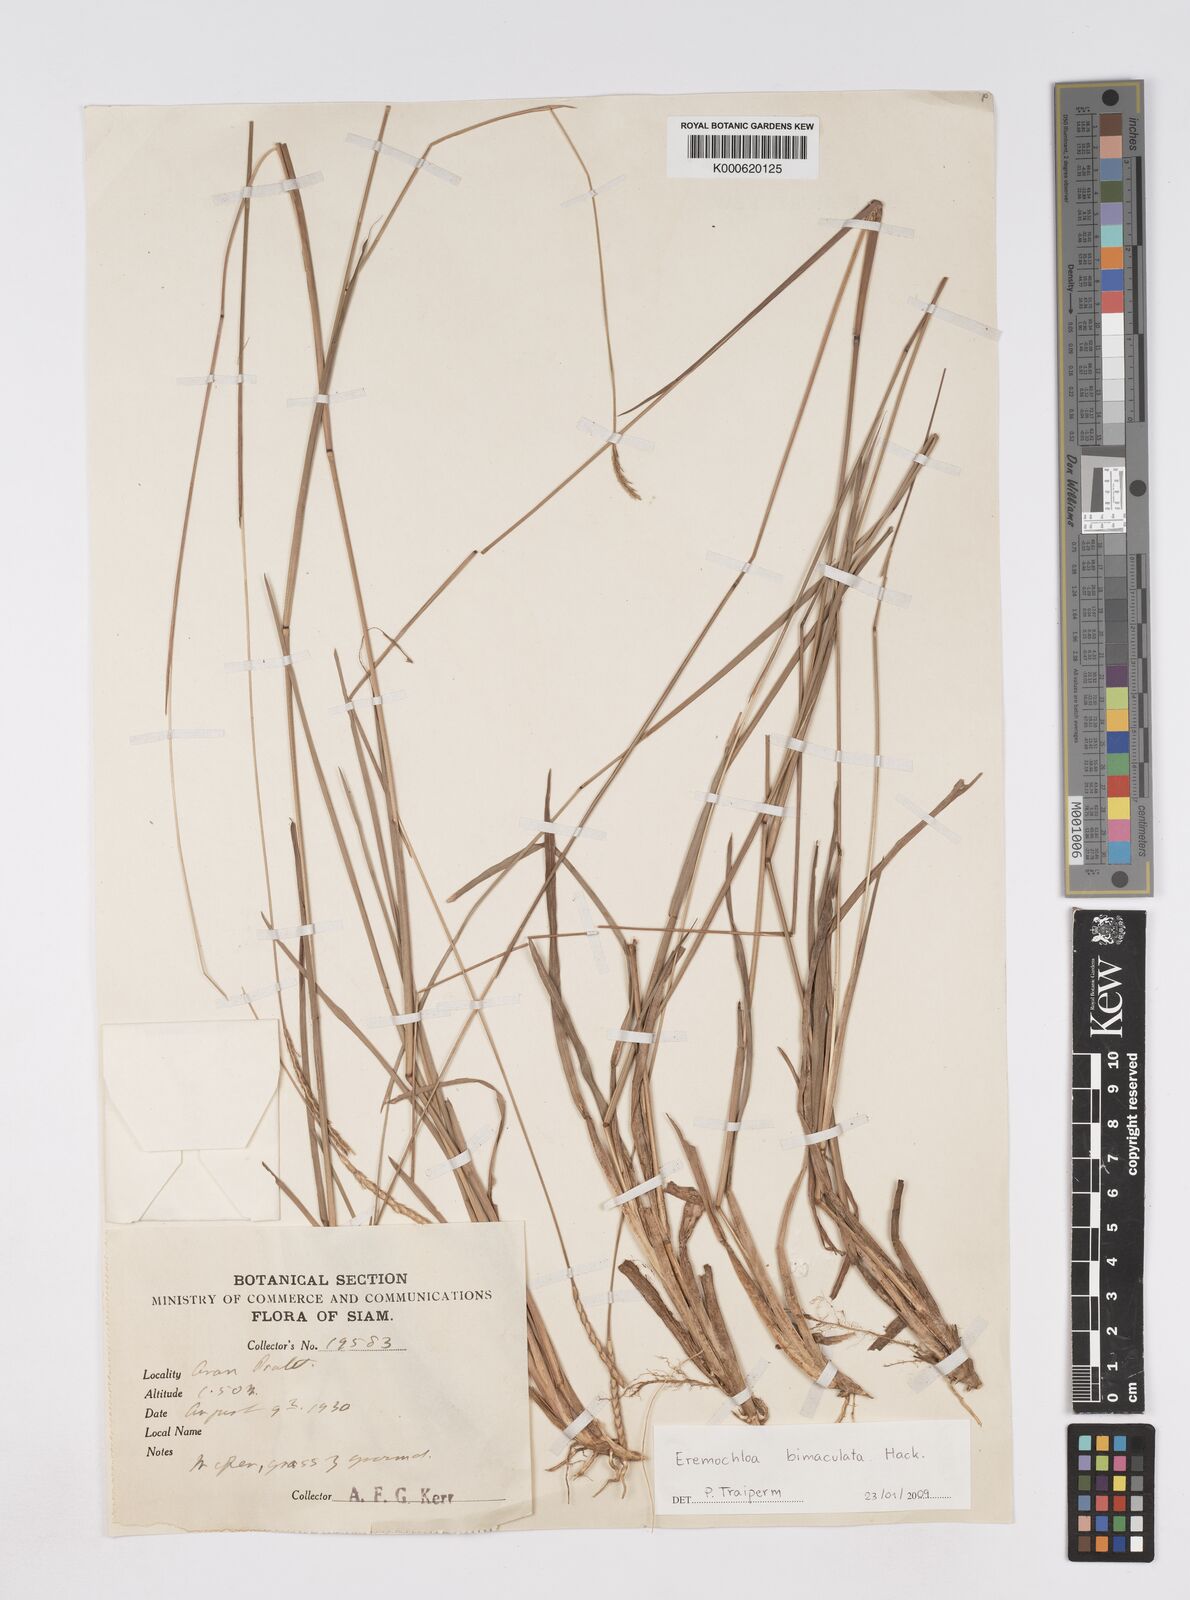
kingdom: Plantae
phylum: Tracheophyta
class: Liliopsida
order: Poales
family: Poaceae
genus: Eremochloa
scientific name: Eremochloa bimaculata
